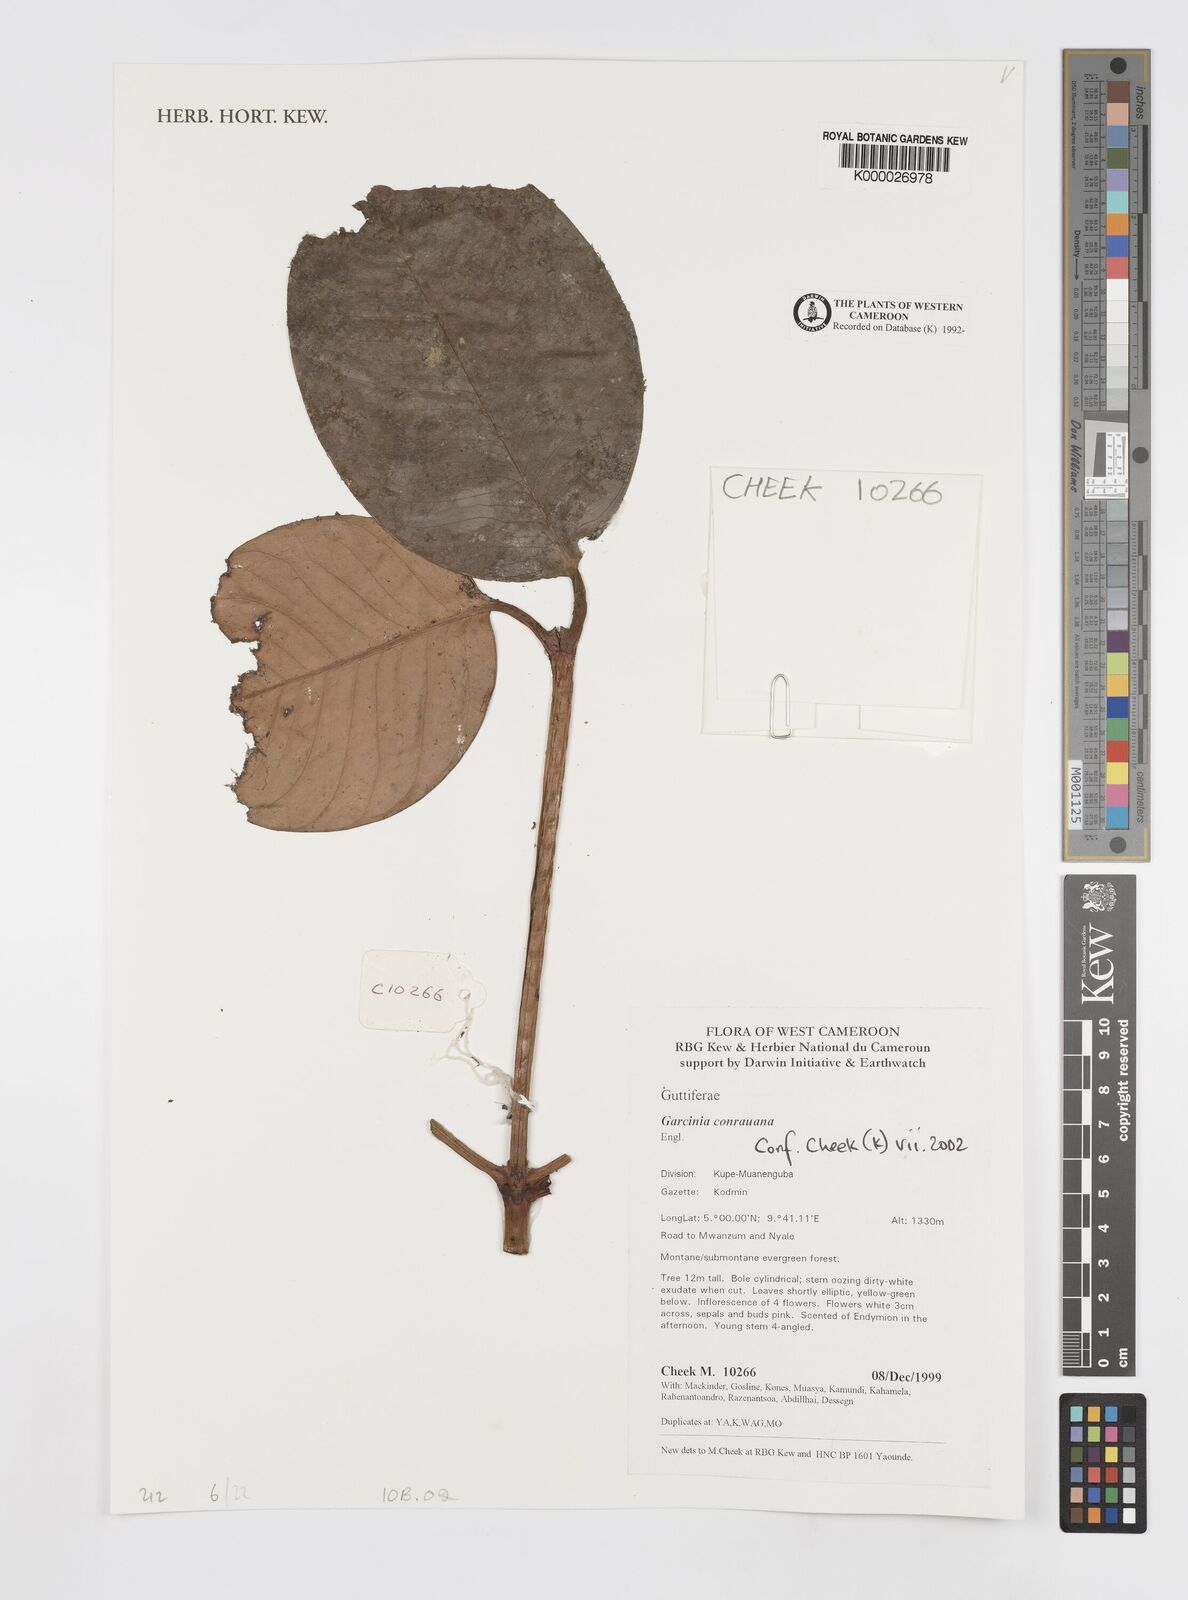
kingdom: Plantae
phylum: Tracheophyta
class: Magnoliopsida
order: Malpighiales
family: Clusiaceae
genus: Garcinia
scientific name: Garcinia conrauana
